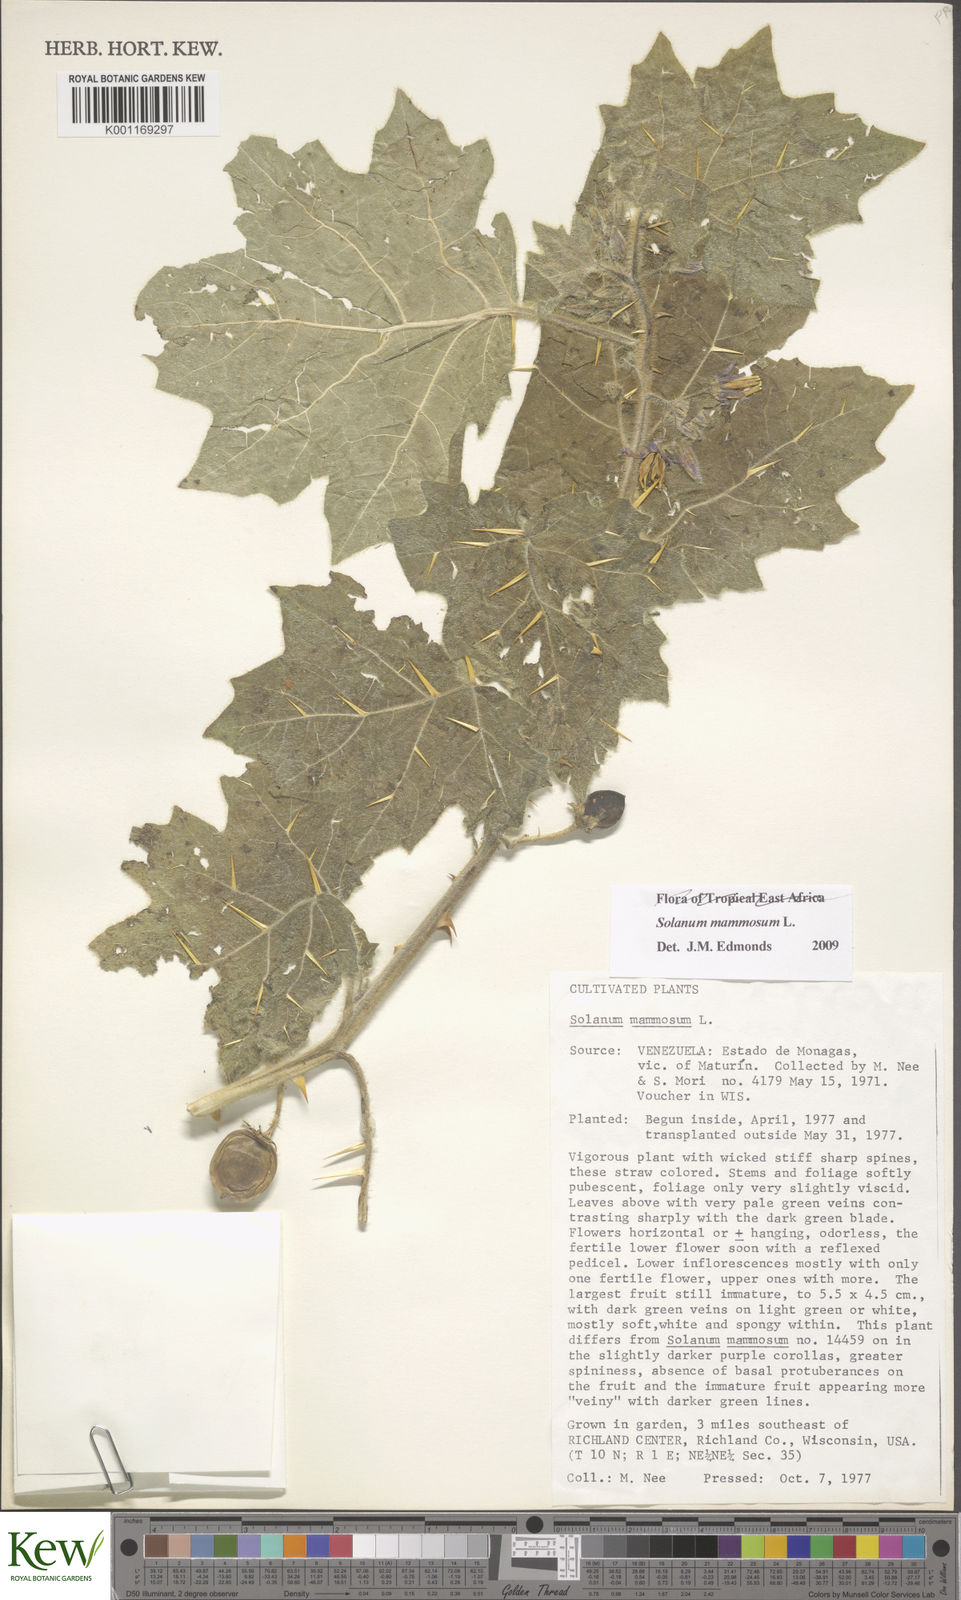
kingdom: Plantae
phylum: Tracheophyta
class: Magnoliopsida
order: Solanales
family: Solanaceae
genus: Solanum
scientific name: Solanum mammosum
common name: Nipple fruit
